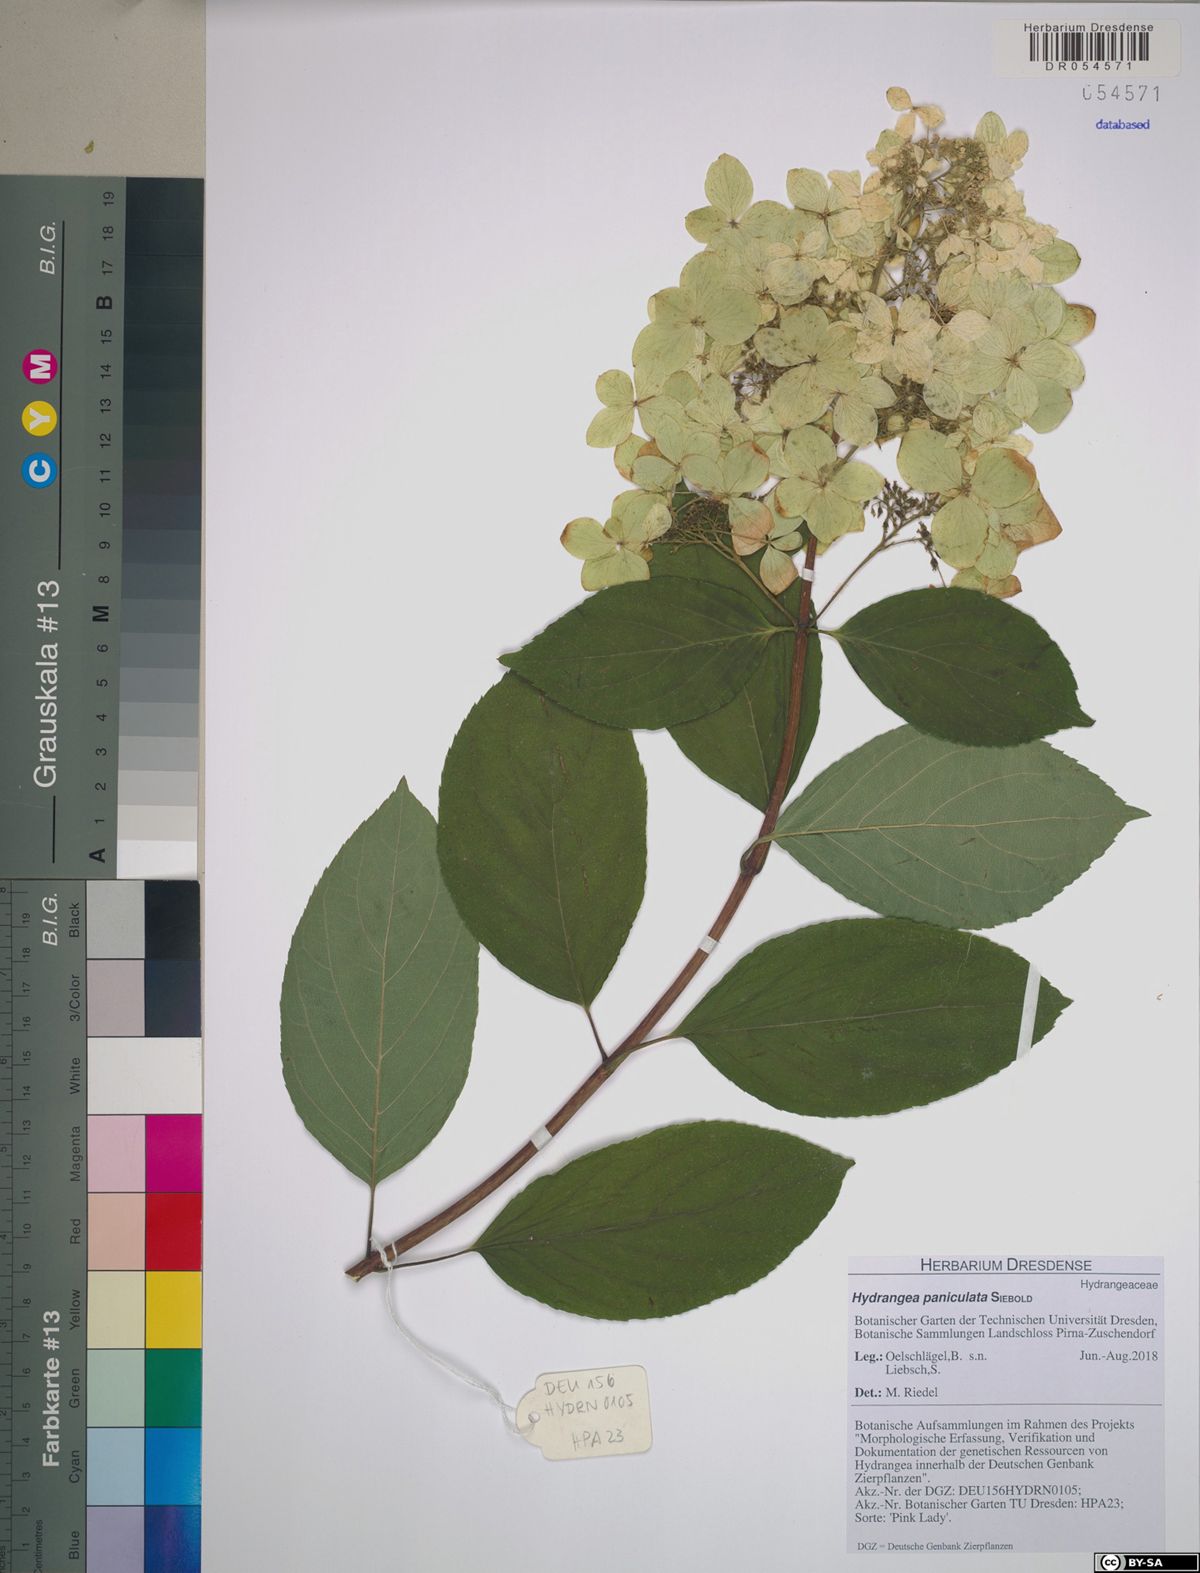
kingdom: Plantae
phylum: Tracheophyta
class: Magnoliopsida
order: Cornales
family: Hydrangeaceae
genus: Hydrangea
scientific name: Hydrangea paniculata
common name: Panicled hydrangea
